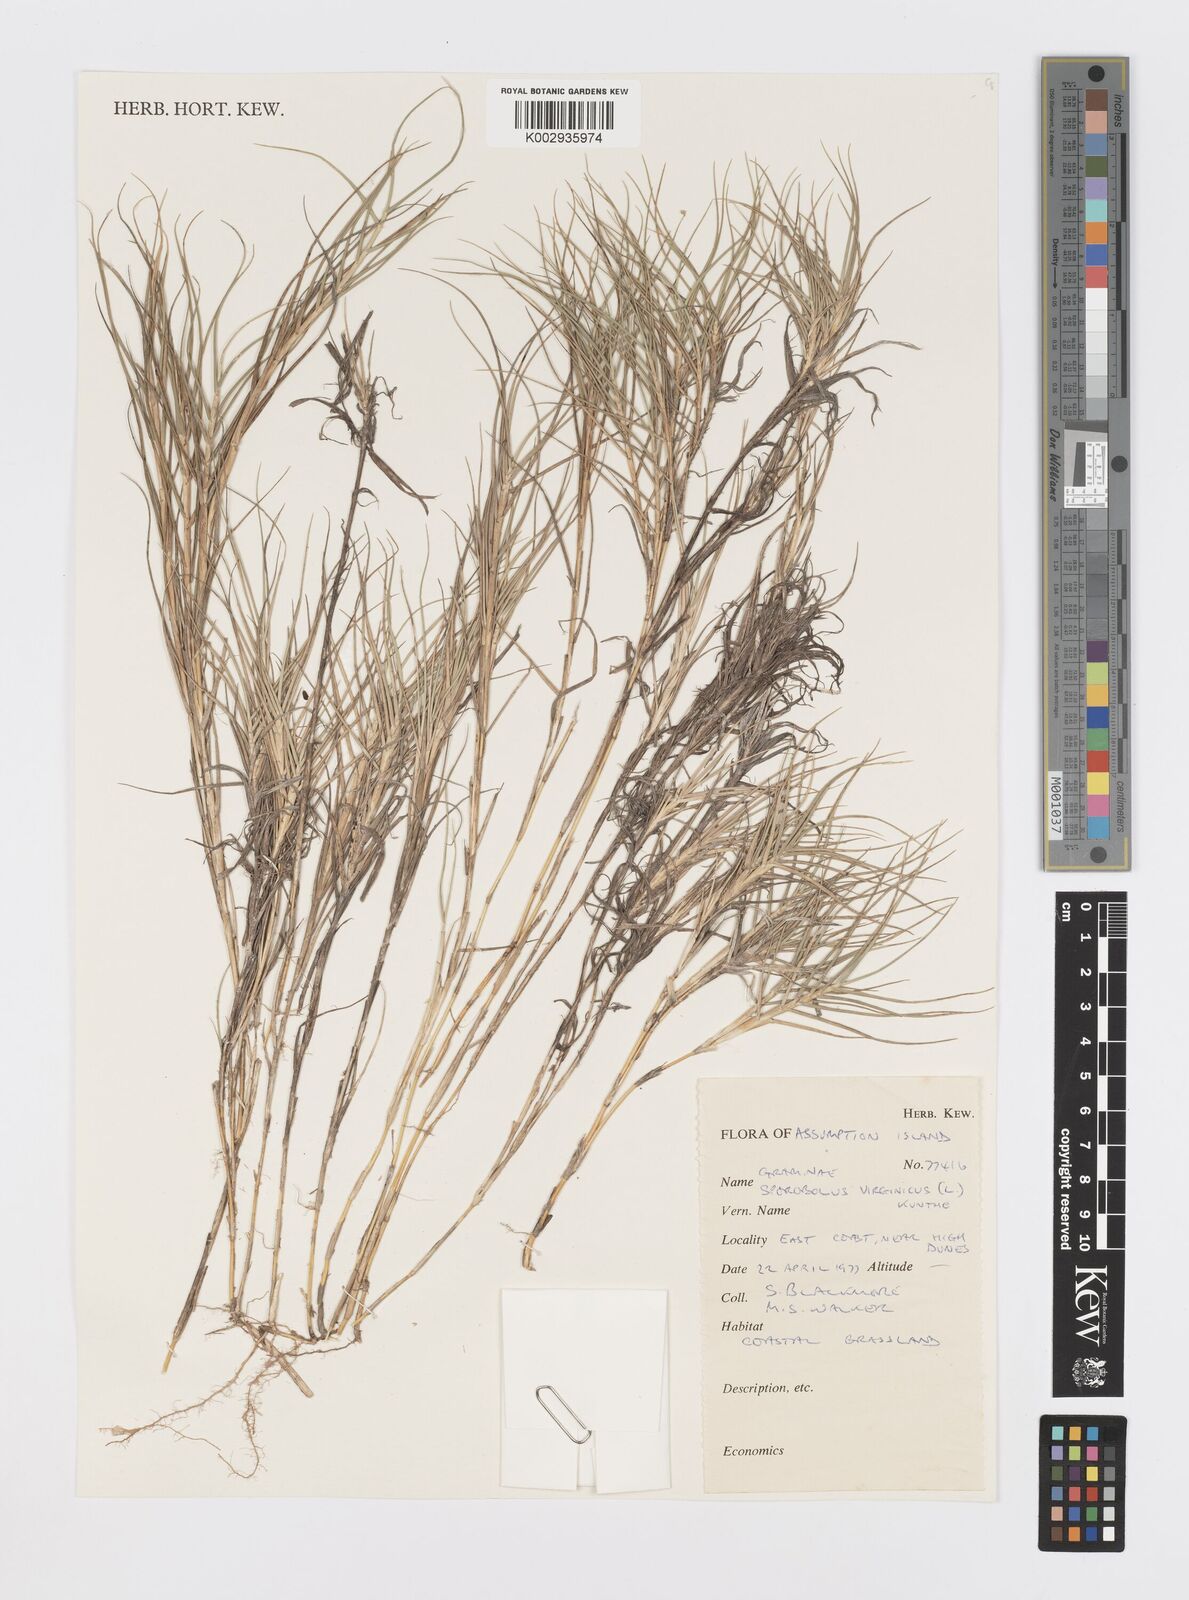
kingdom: Plantae
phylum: Tracheophyta
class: Liliopsida
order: Poales
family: Poaceae
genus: Sporobolus
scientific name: Sporobolus virginicus
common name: Beach dropseed
